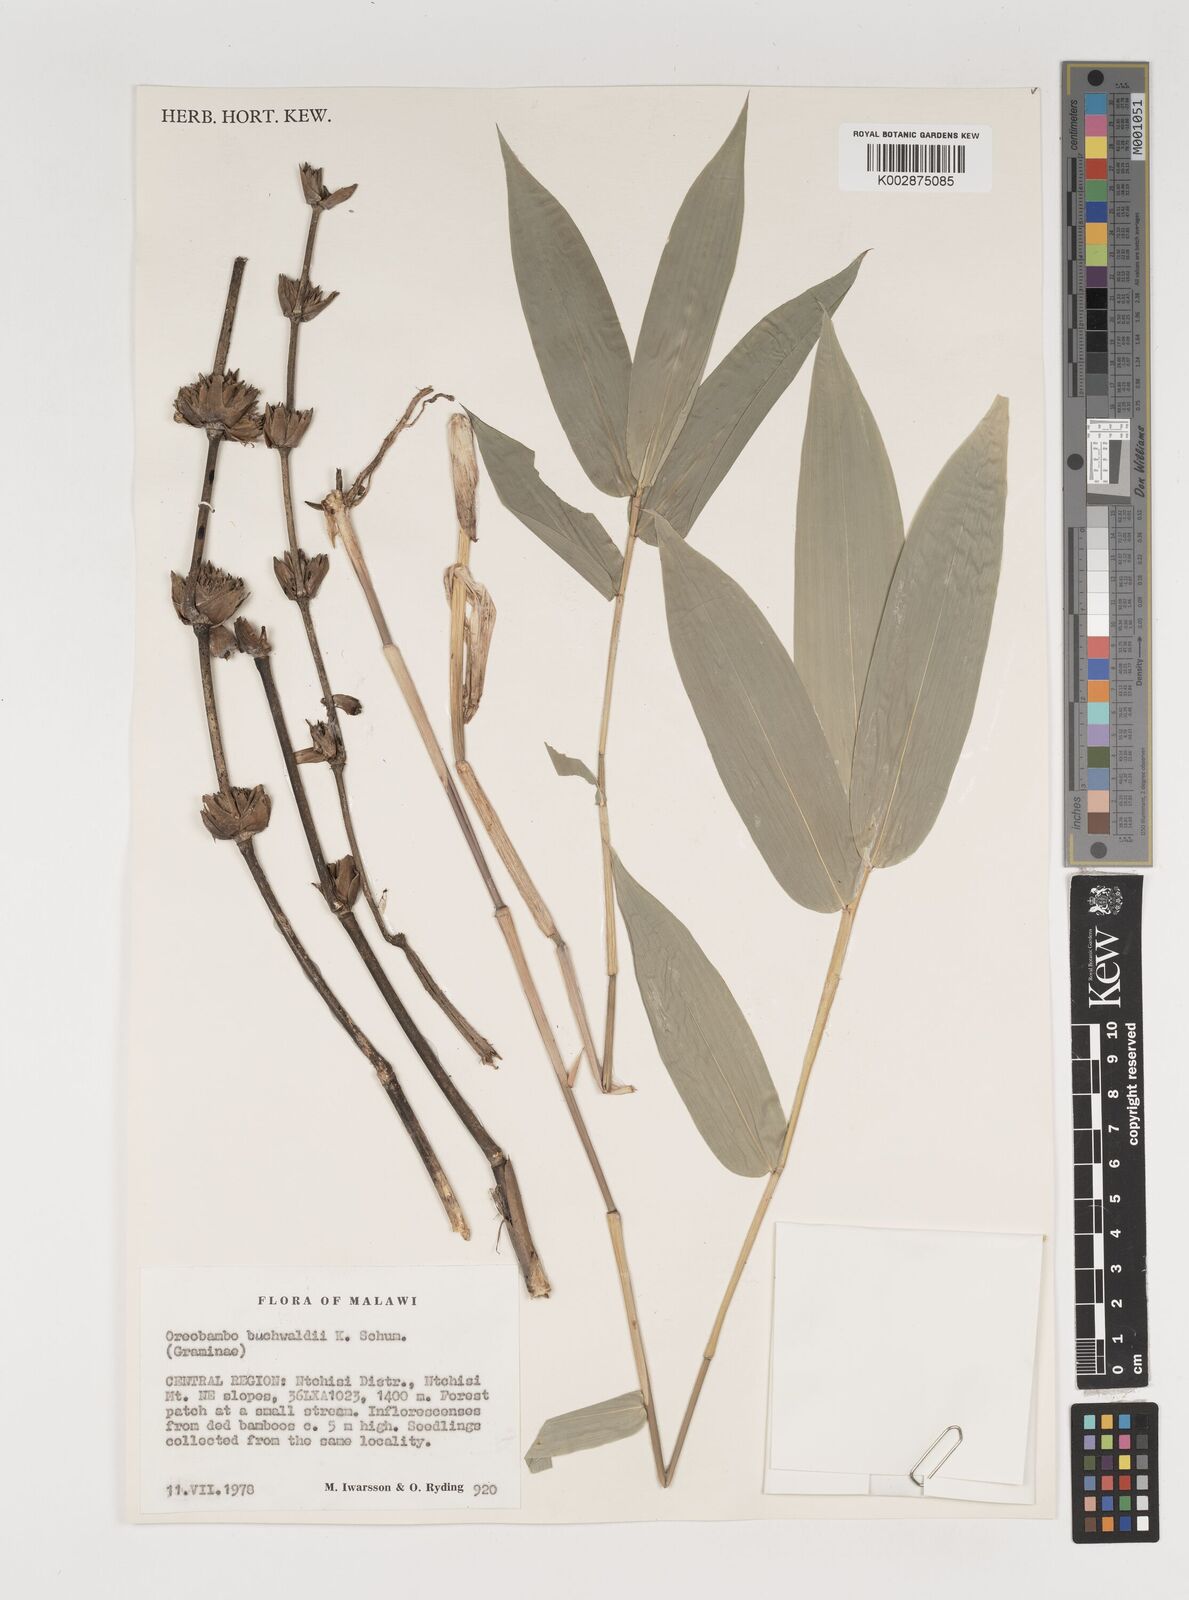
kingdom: Plantae
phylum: Tracheophyta
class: Liliopsida
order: Poales
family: Poaceae
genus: Oreobambos
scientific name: Oreobambos buchwaldii
